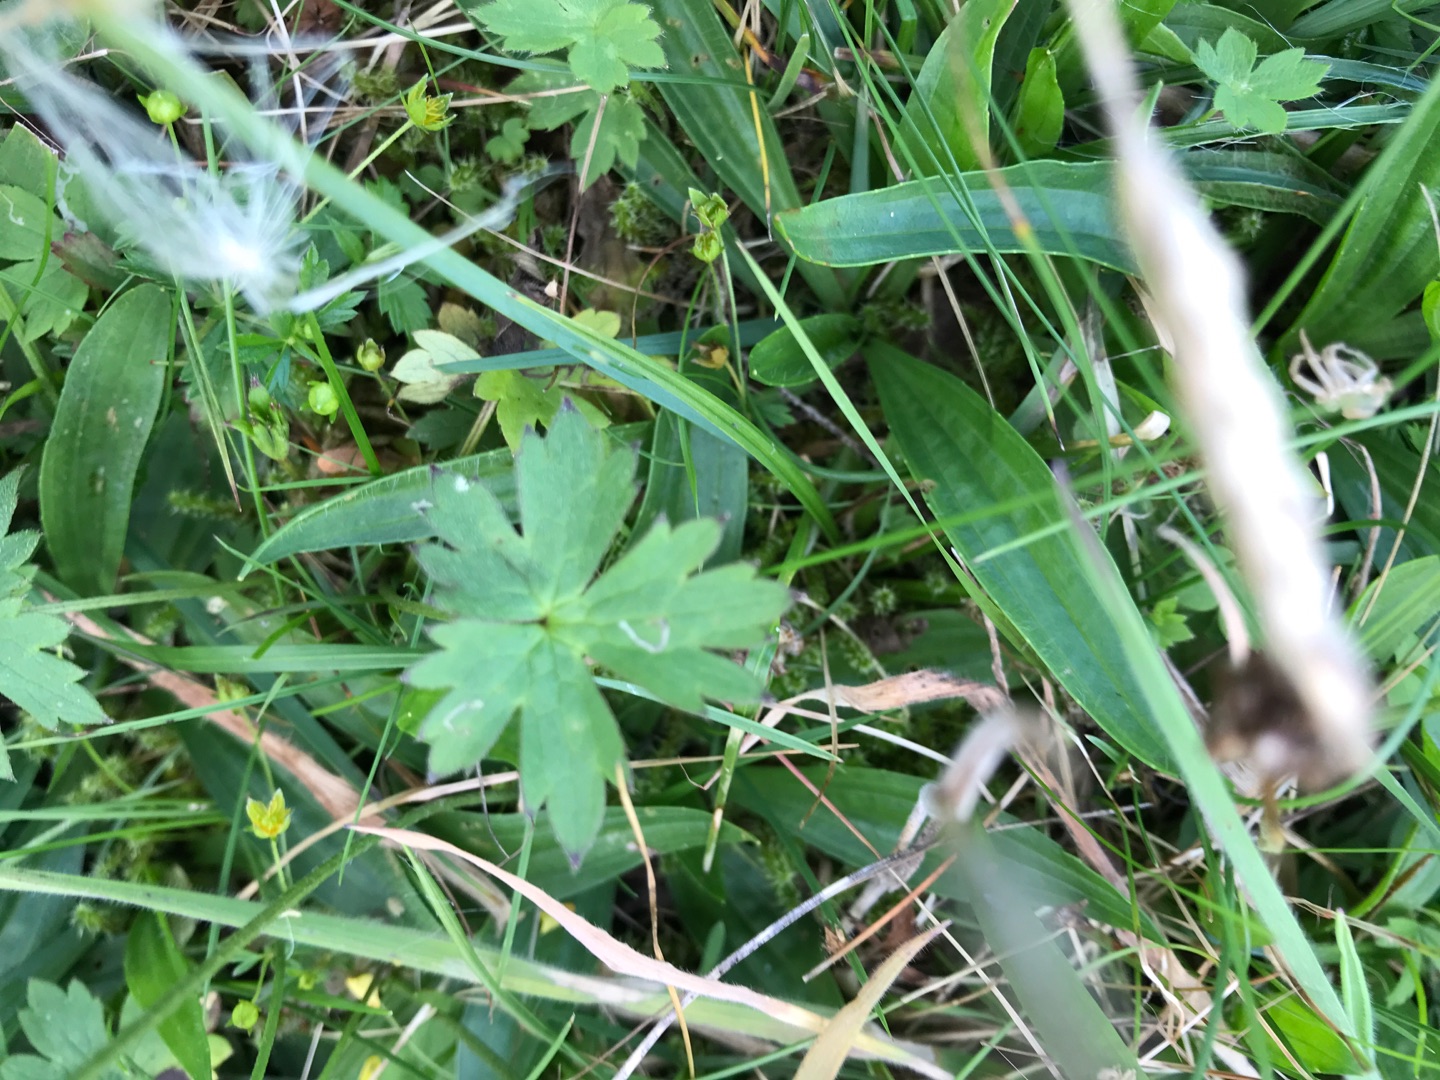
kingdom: Plantae
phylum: Tracheophyta
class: Magnoliopsida
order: Ranunculales
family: Ranunculaceae
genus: Ranunculus
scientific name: Ranunculus acris
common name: Bidende ranunkel
